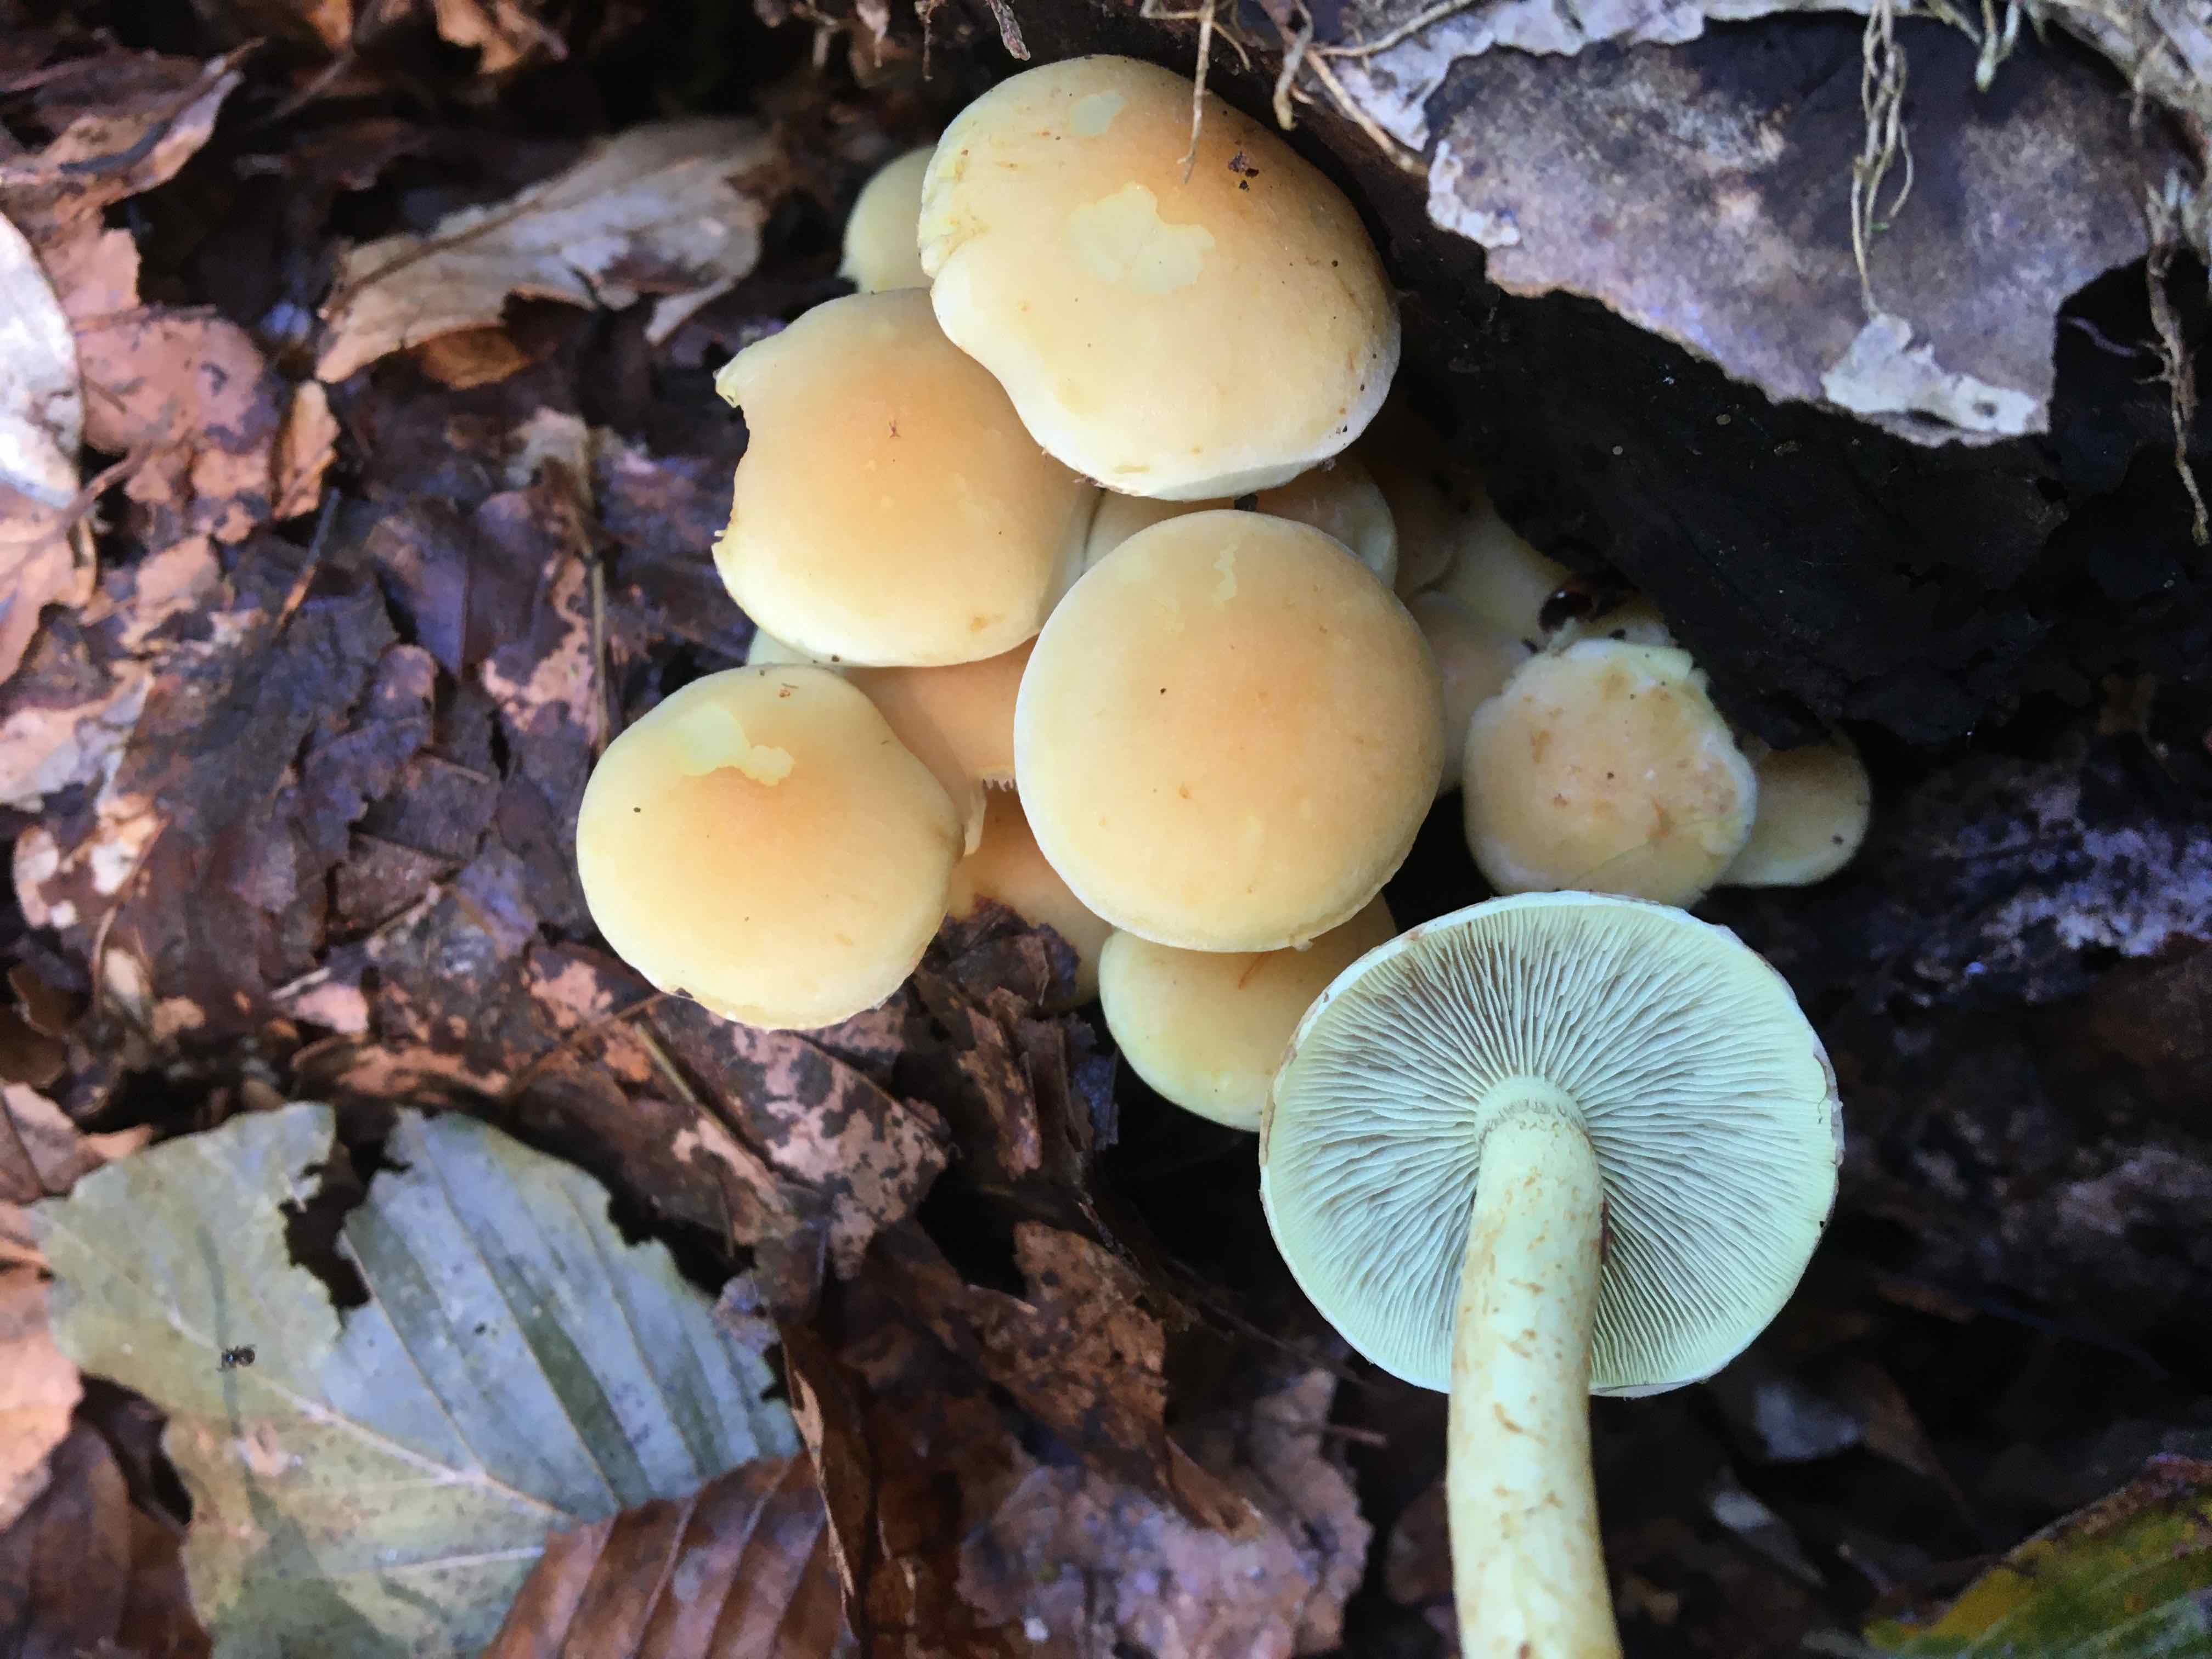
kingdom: Fungi
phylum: Basidiomycota
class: Agaricomycetes
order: Agaricales
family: Strophariaceae
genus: Hypholoma
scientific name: Hypholoma fasciculare
